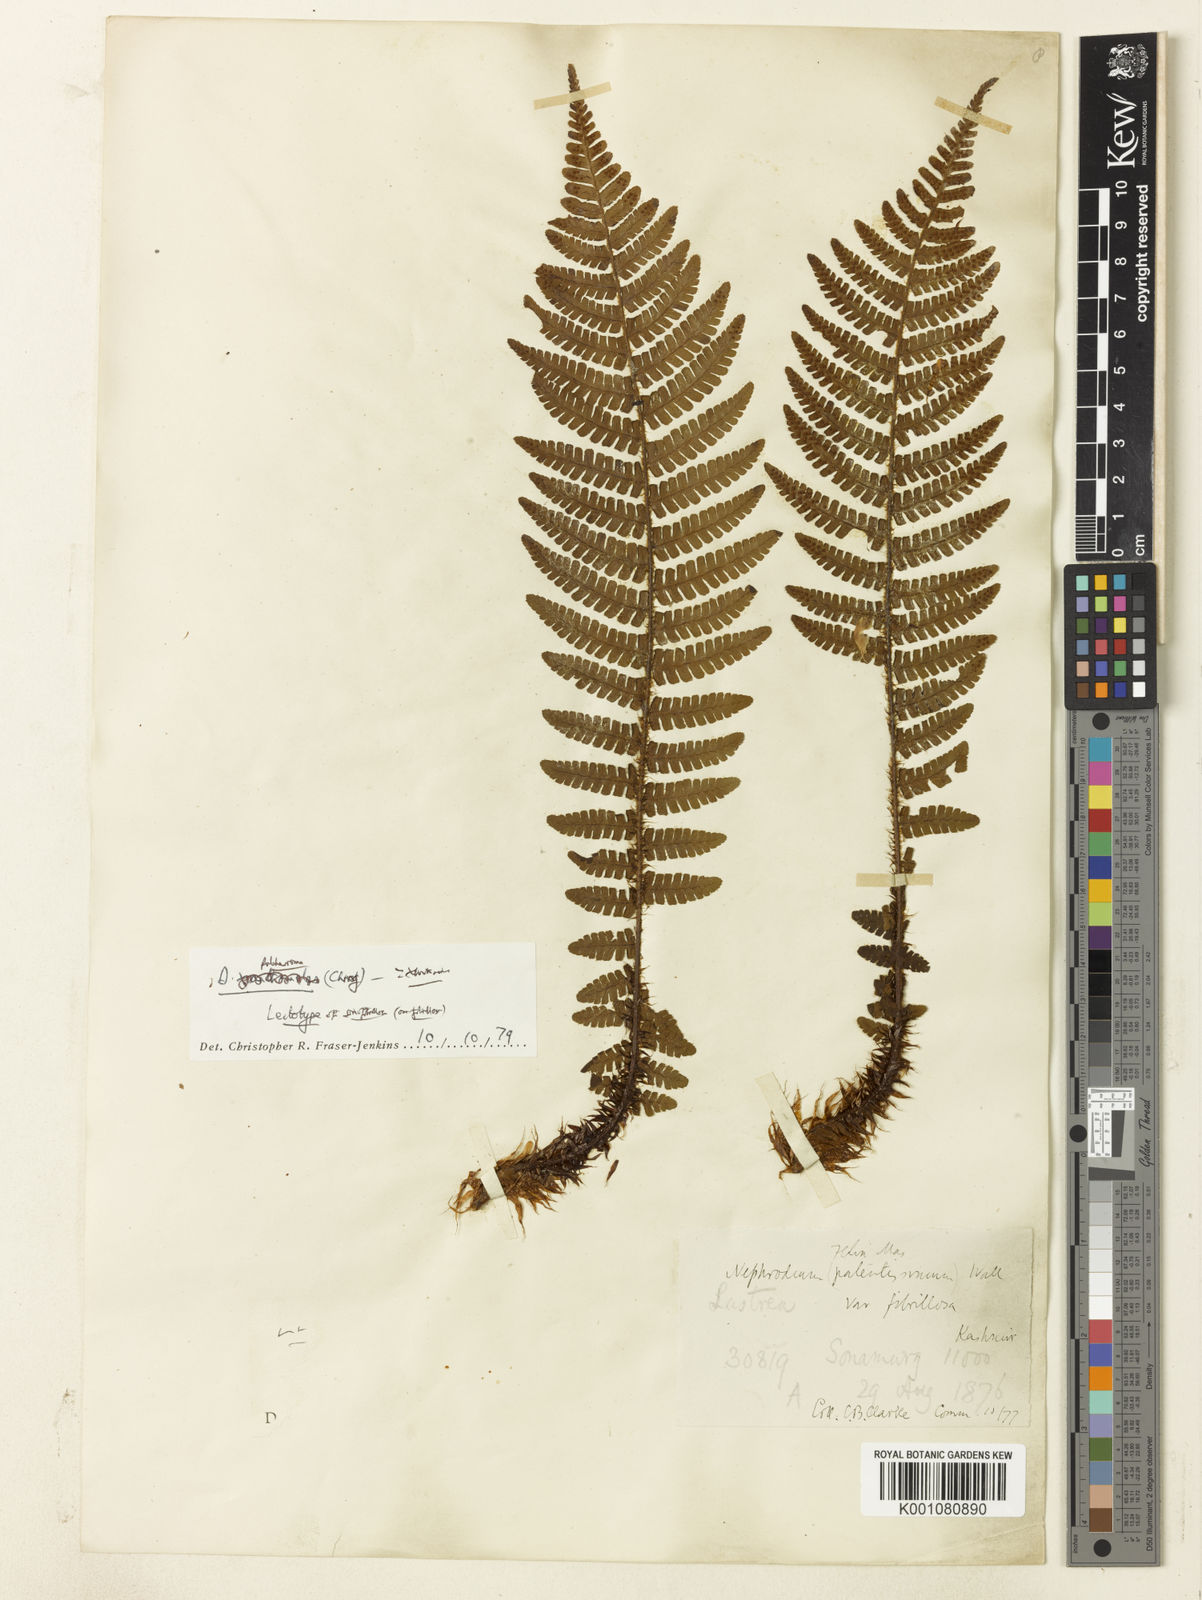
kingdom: Plantae
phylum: Tracheophyta
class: Polypodiopsida
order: Polypodiales
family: Dryopteridaceae
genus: Dryopteris
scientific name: Dryopteris xanthomelas
